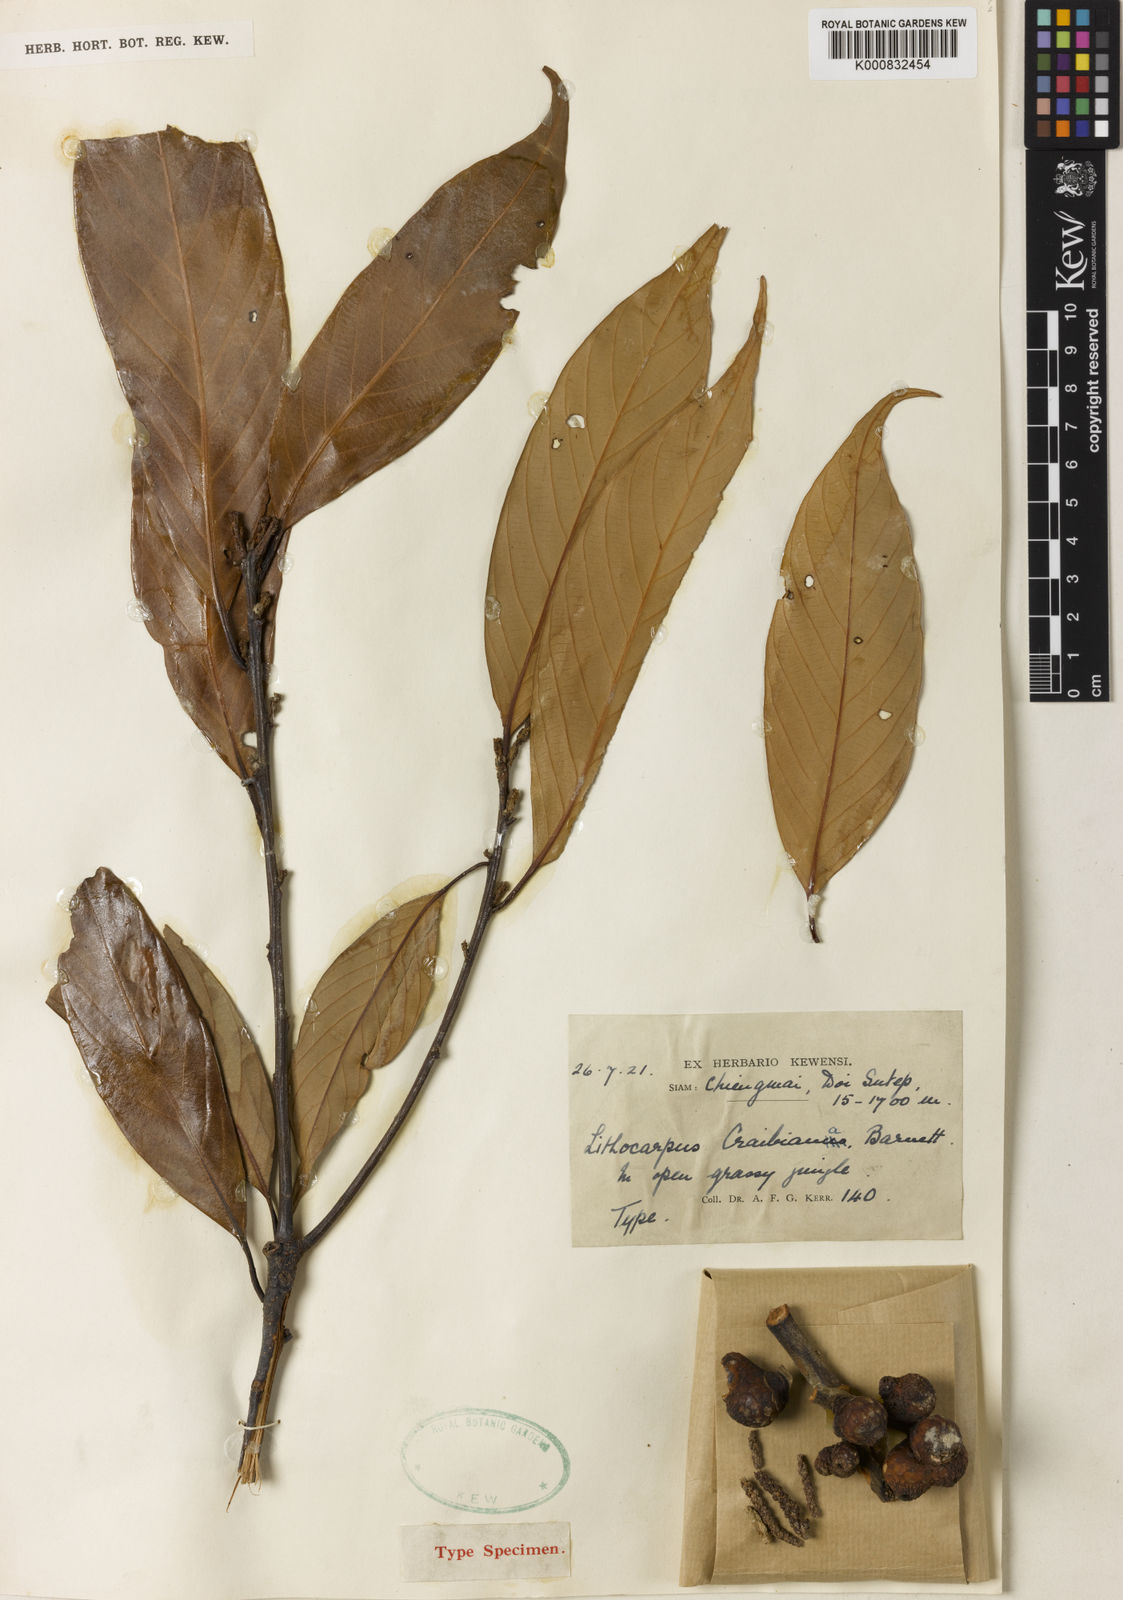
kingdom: Plantae
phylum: Tracheophyta
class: Magnoliopsida
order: Fagales
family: Fagaceae
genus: Lithocarpus
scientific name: Lithocarpus craibianus
